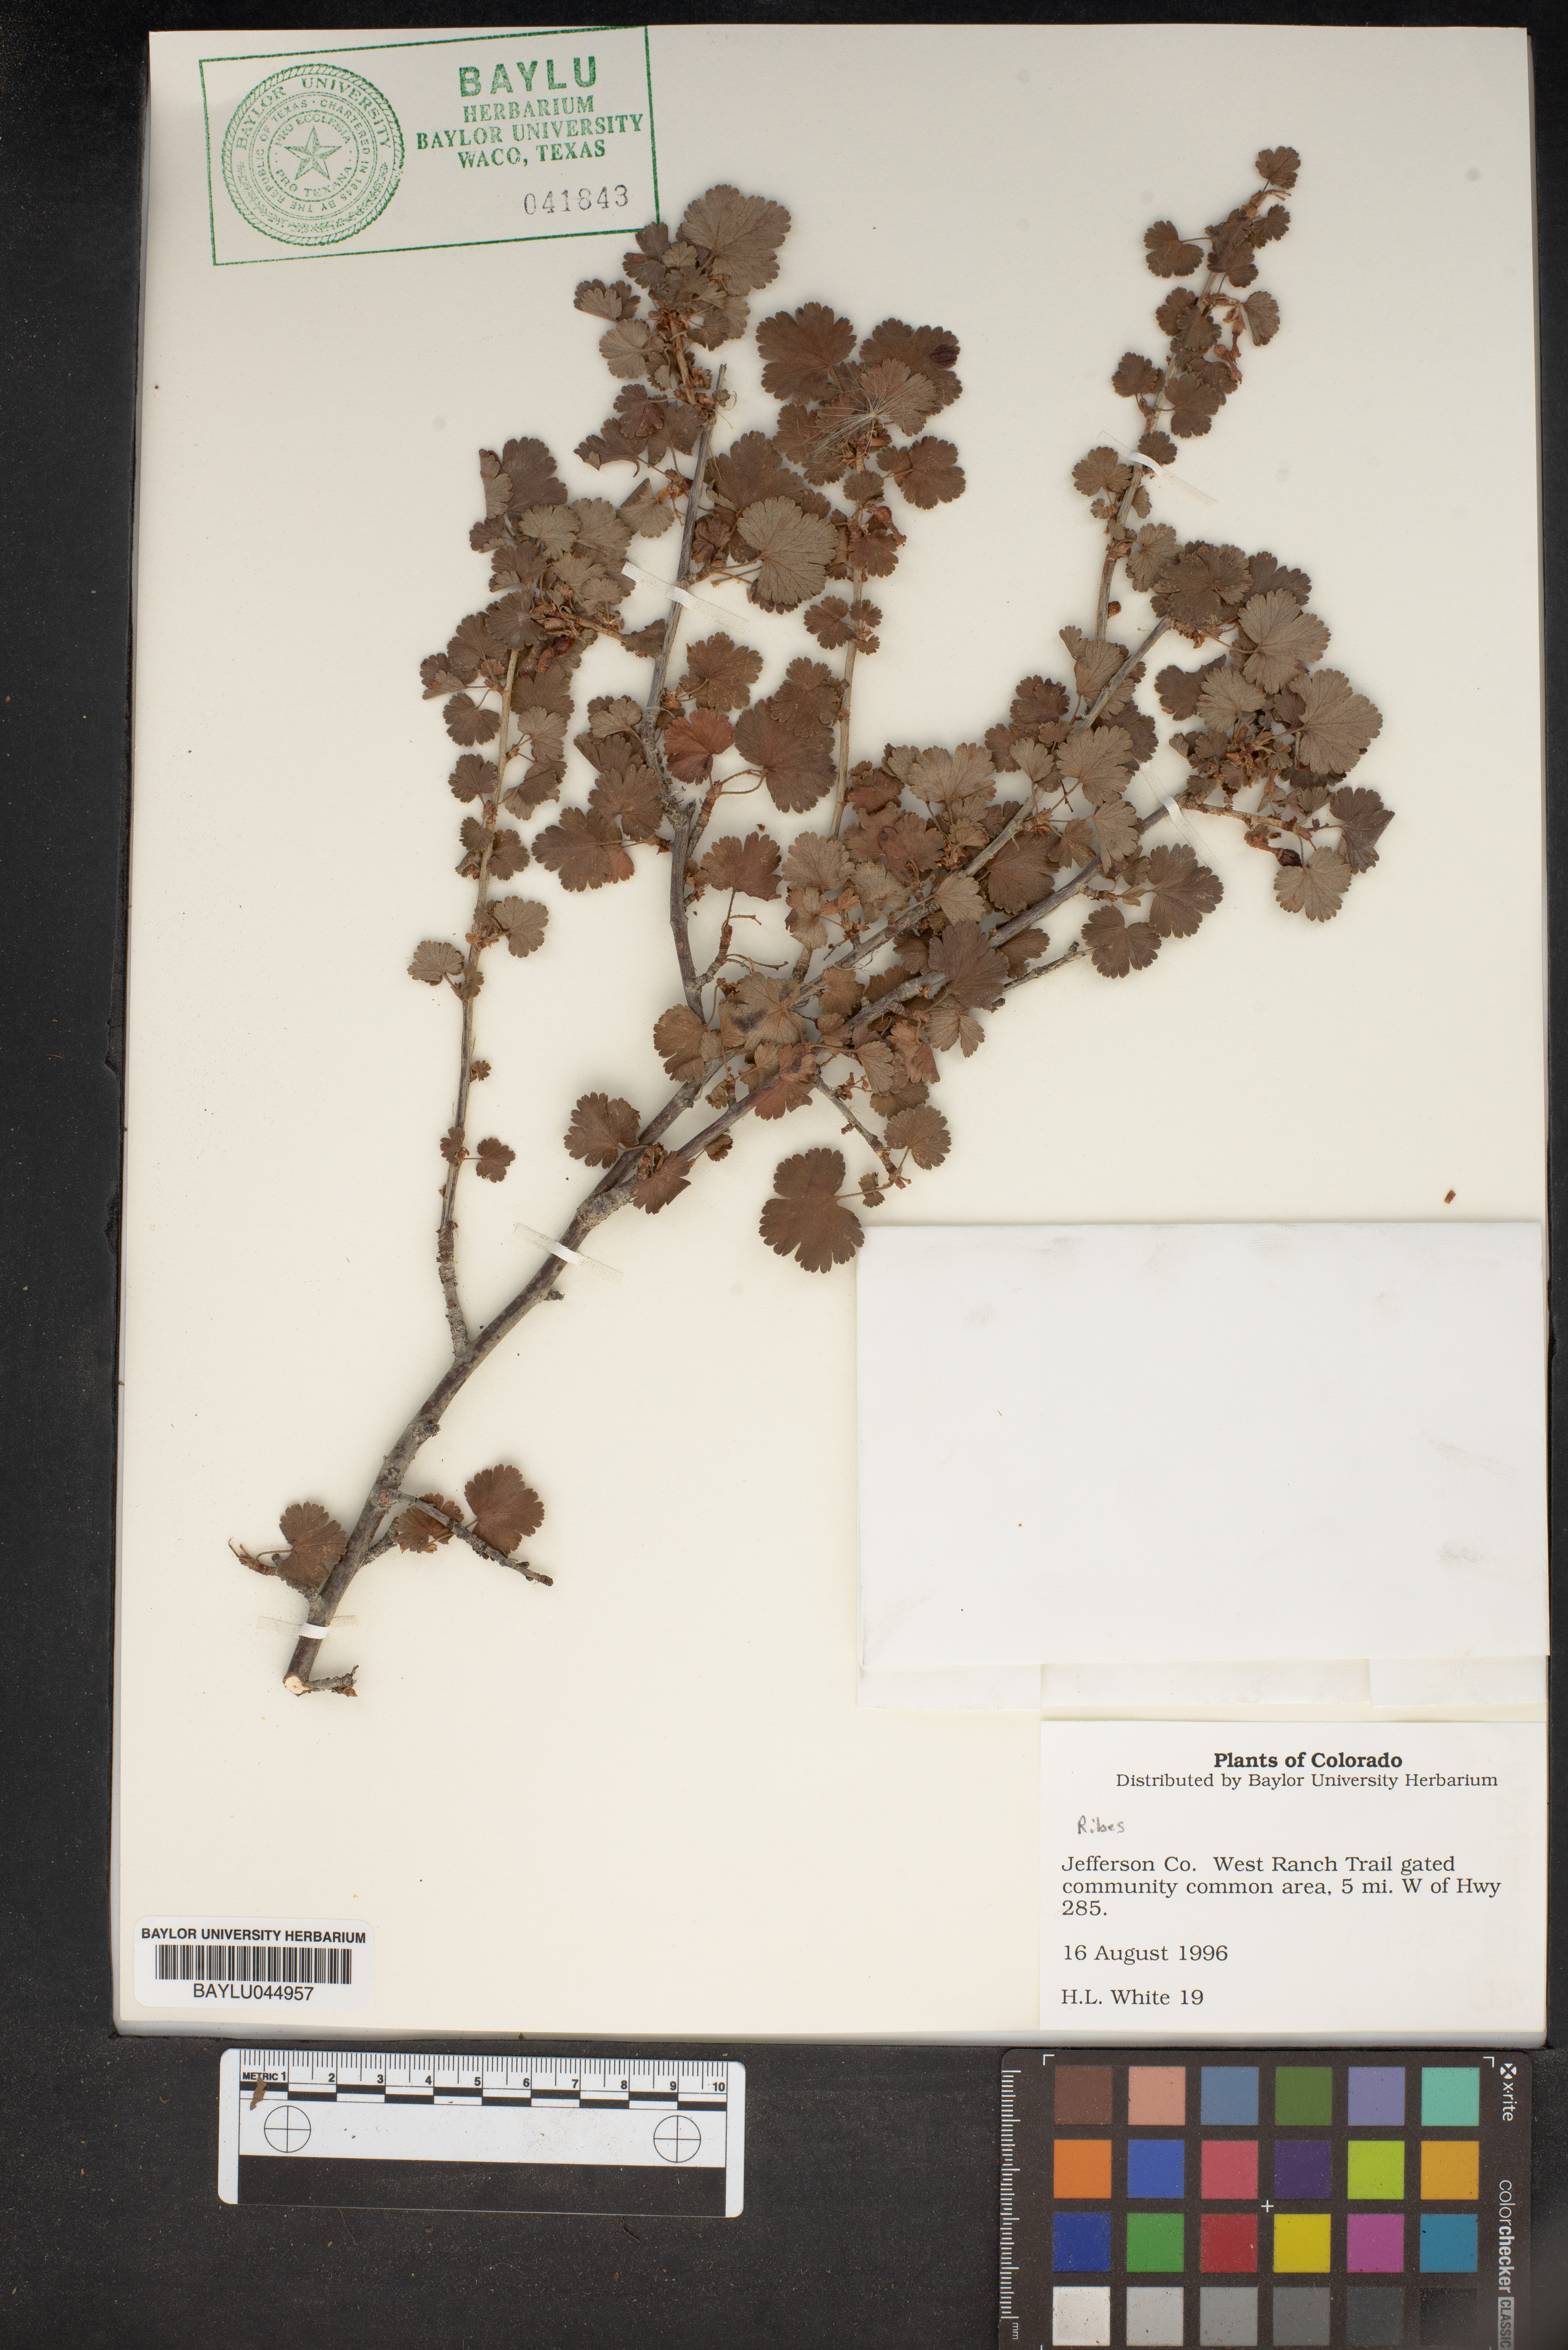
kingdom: Plantae
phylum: Tracheophyta
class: Magnoliopsida
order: Saxifragales
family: Grossulariaceae
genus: Ribes
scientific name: Ribes
